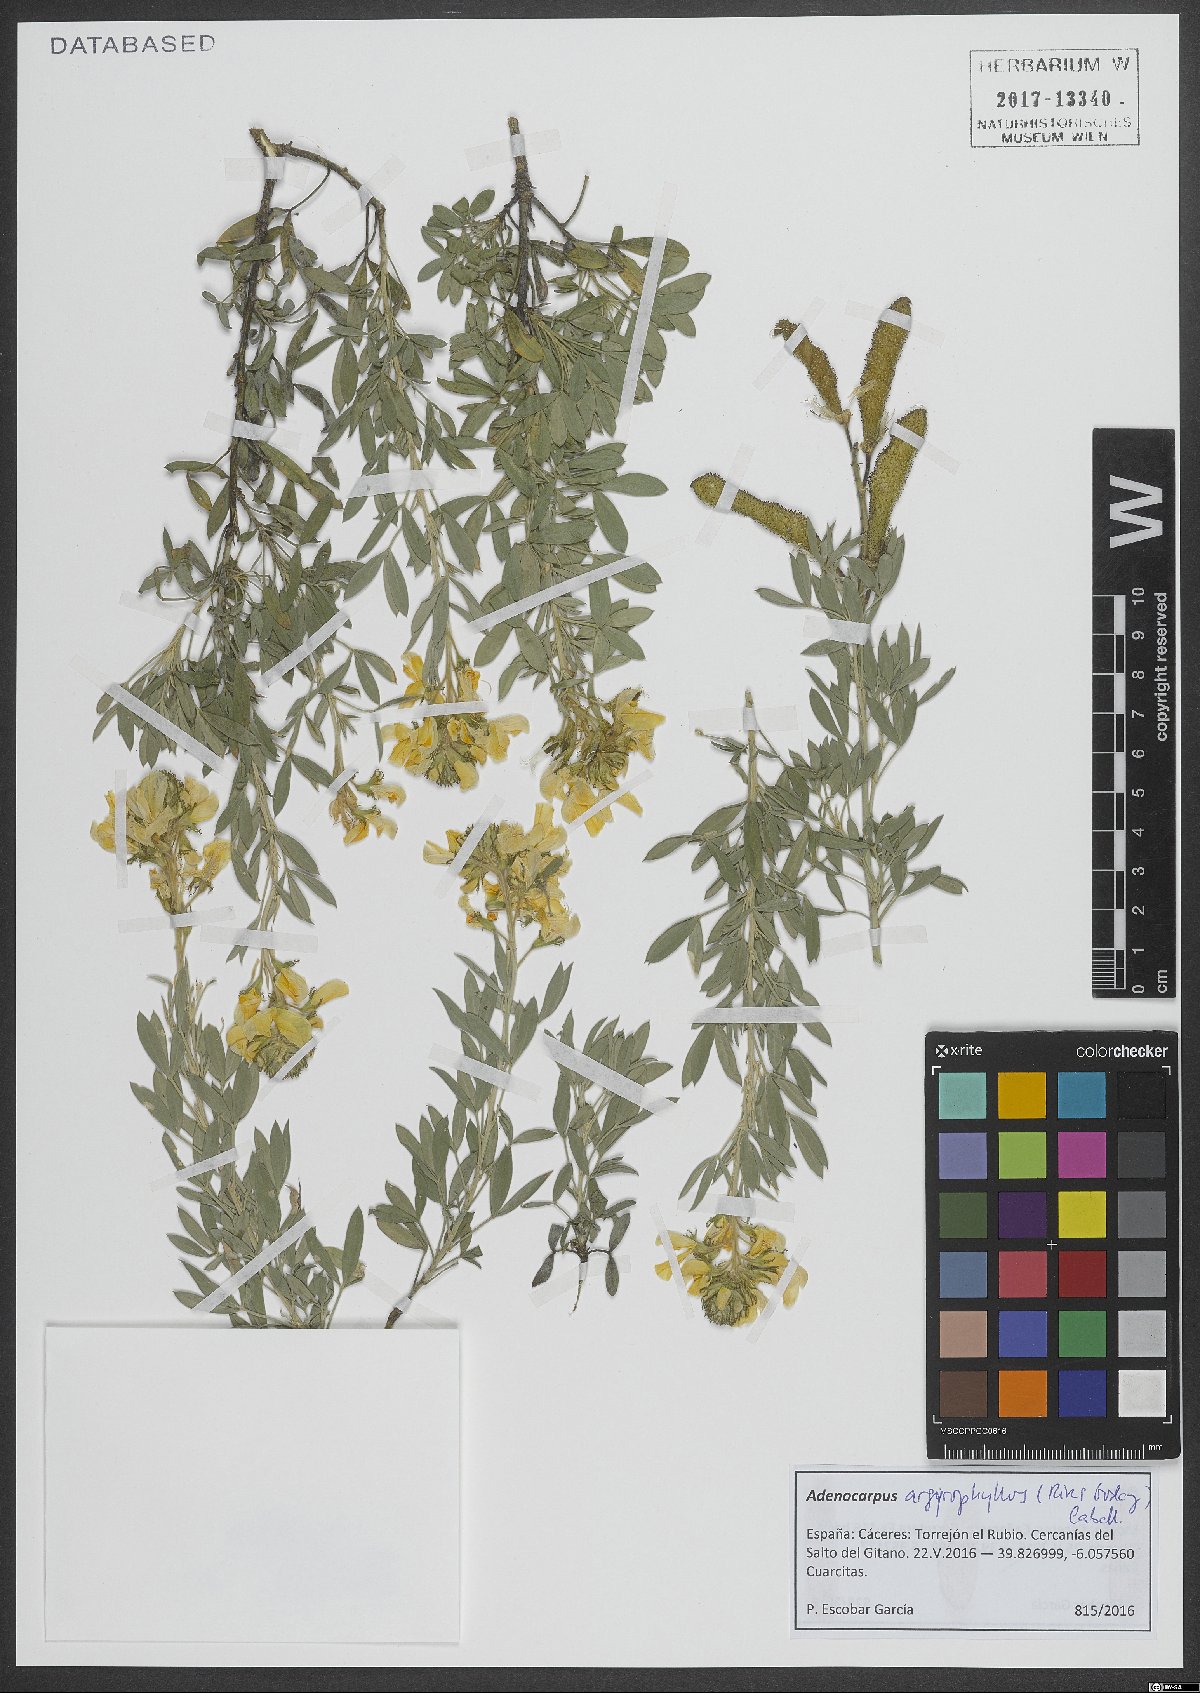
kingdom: Plantae
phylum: Tracheophyta
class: Magnoliopsida
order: Fabales
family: Fabaceae
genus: Adenocarpus
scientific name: Adenocarpus argyrophyllus
